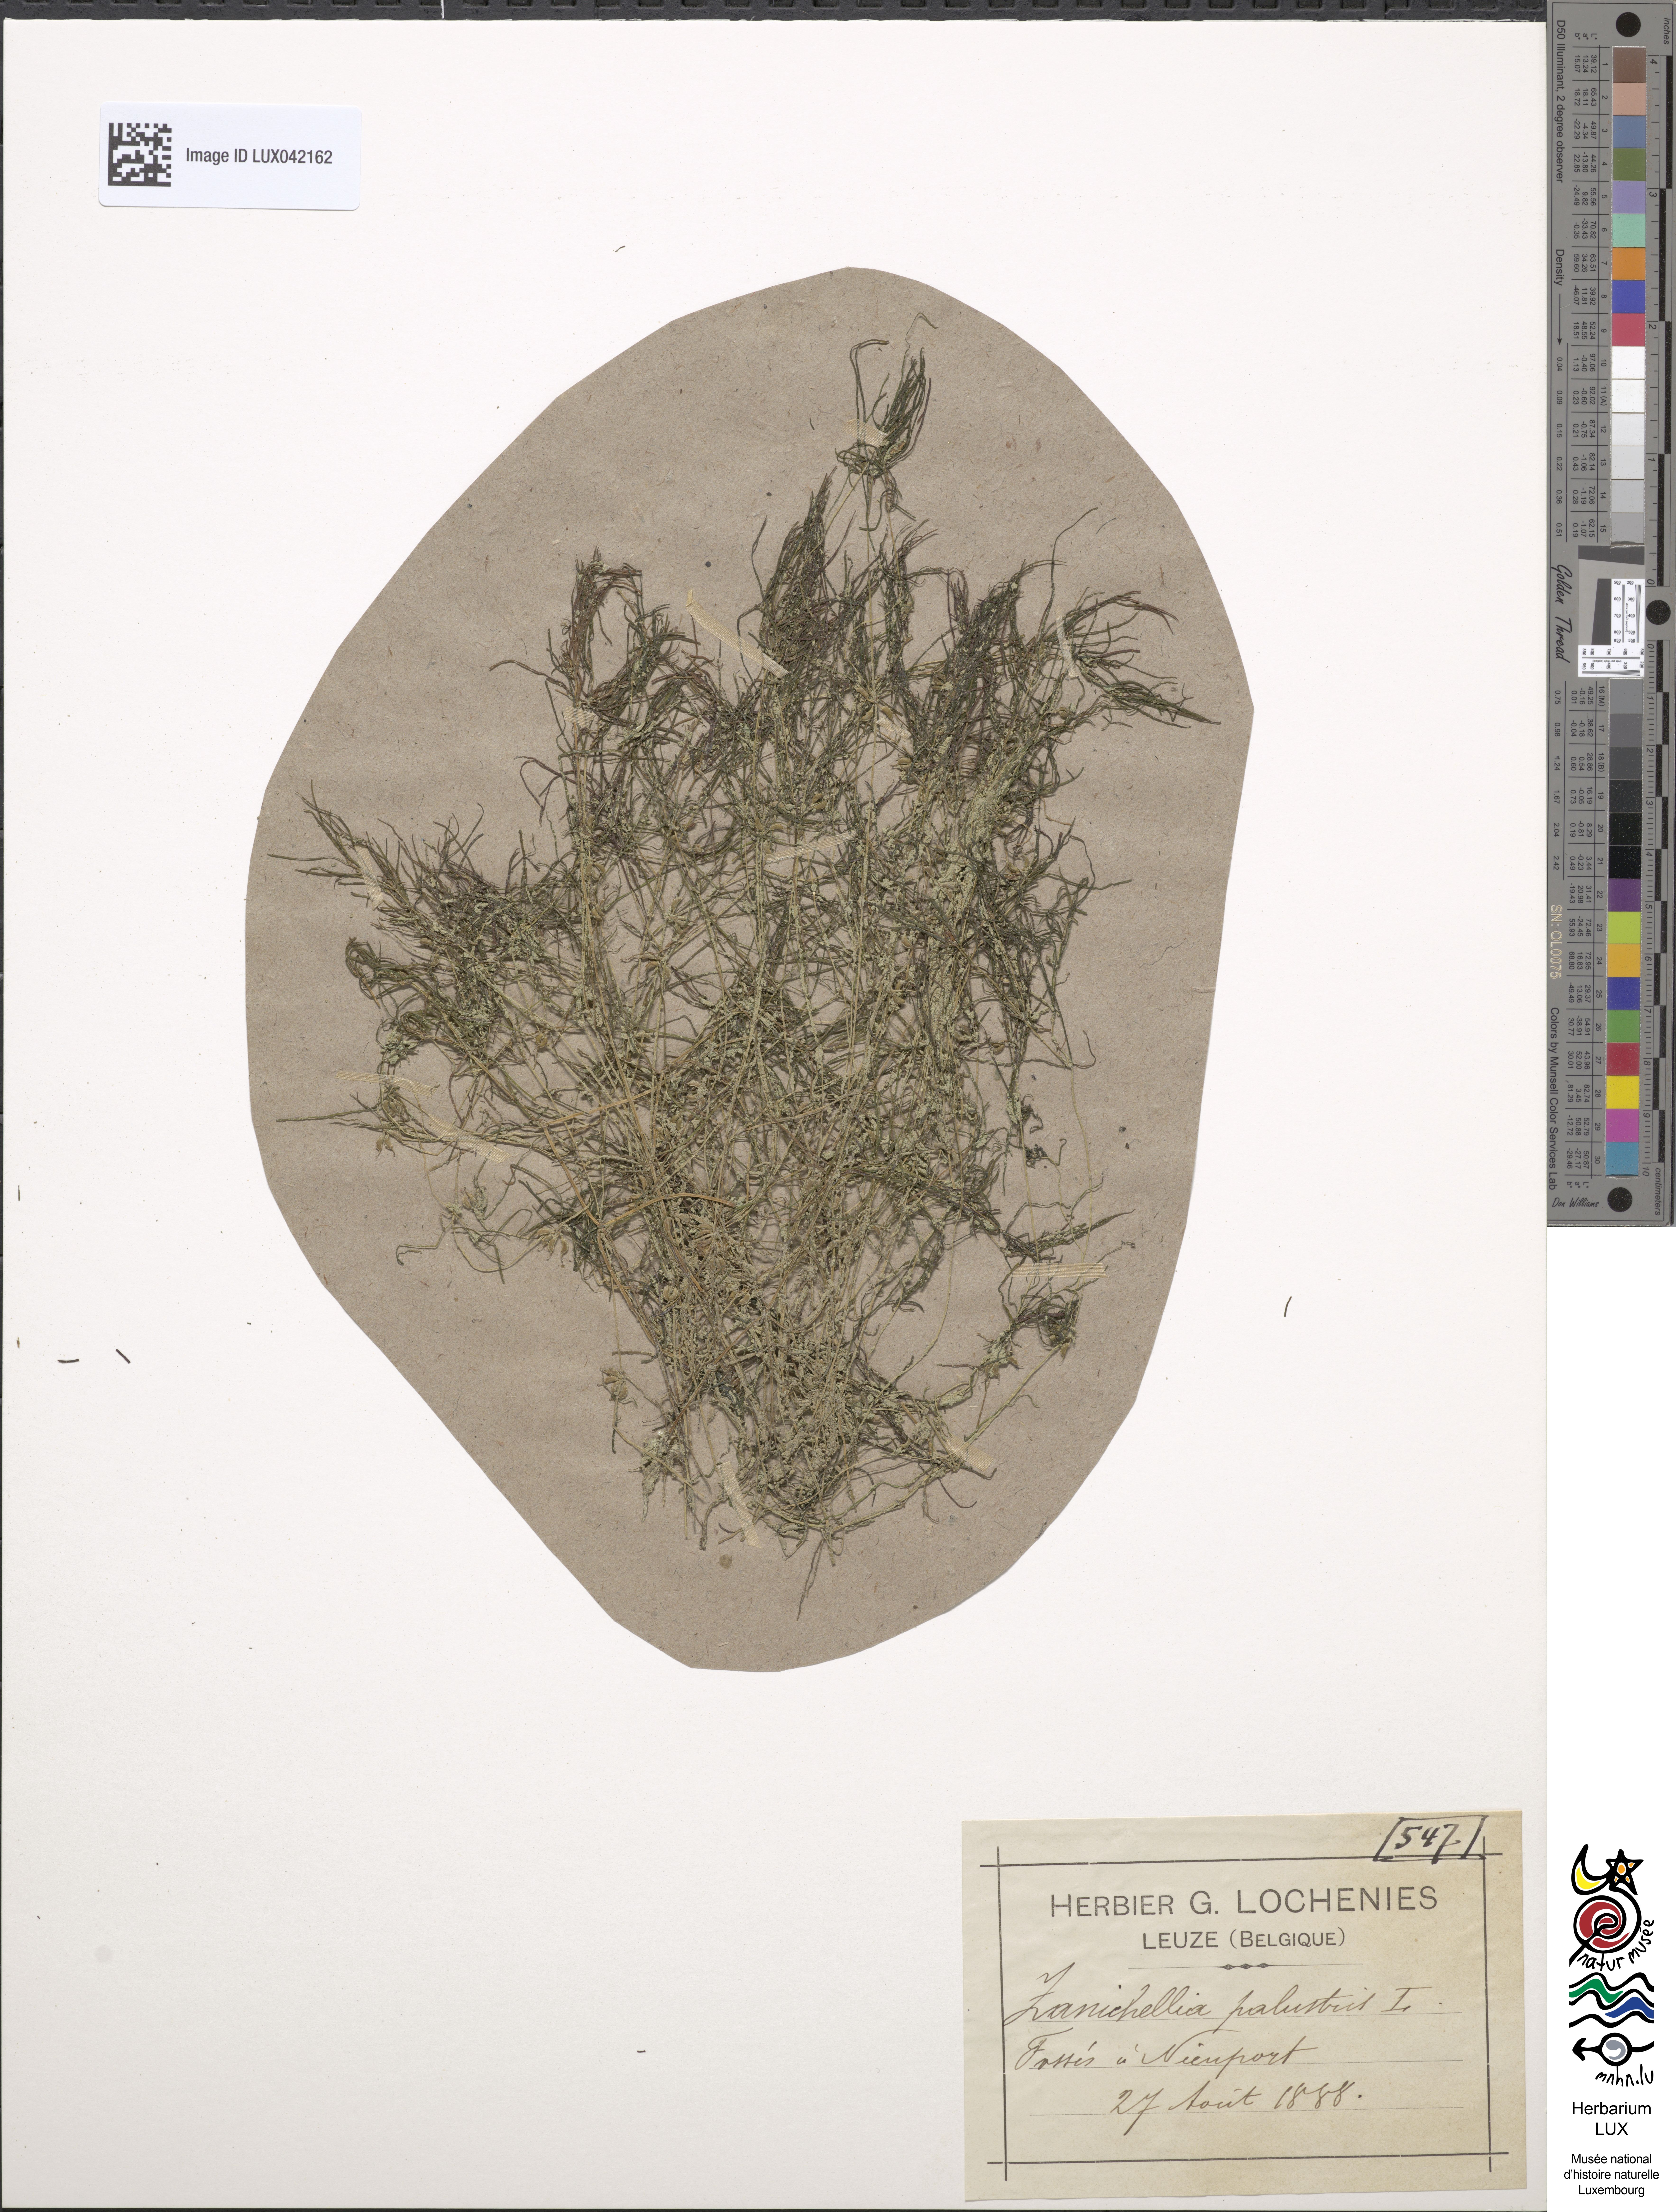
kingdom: Plantae
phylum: Tracheophyta
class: Liliopsida
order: Alismatales
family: Potamogetonaceae
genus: Zannichellia
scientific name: Zannichellia palustris
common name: Horned pondweed
